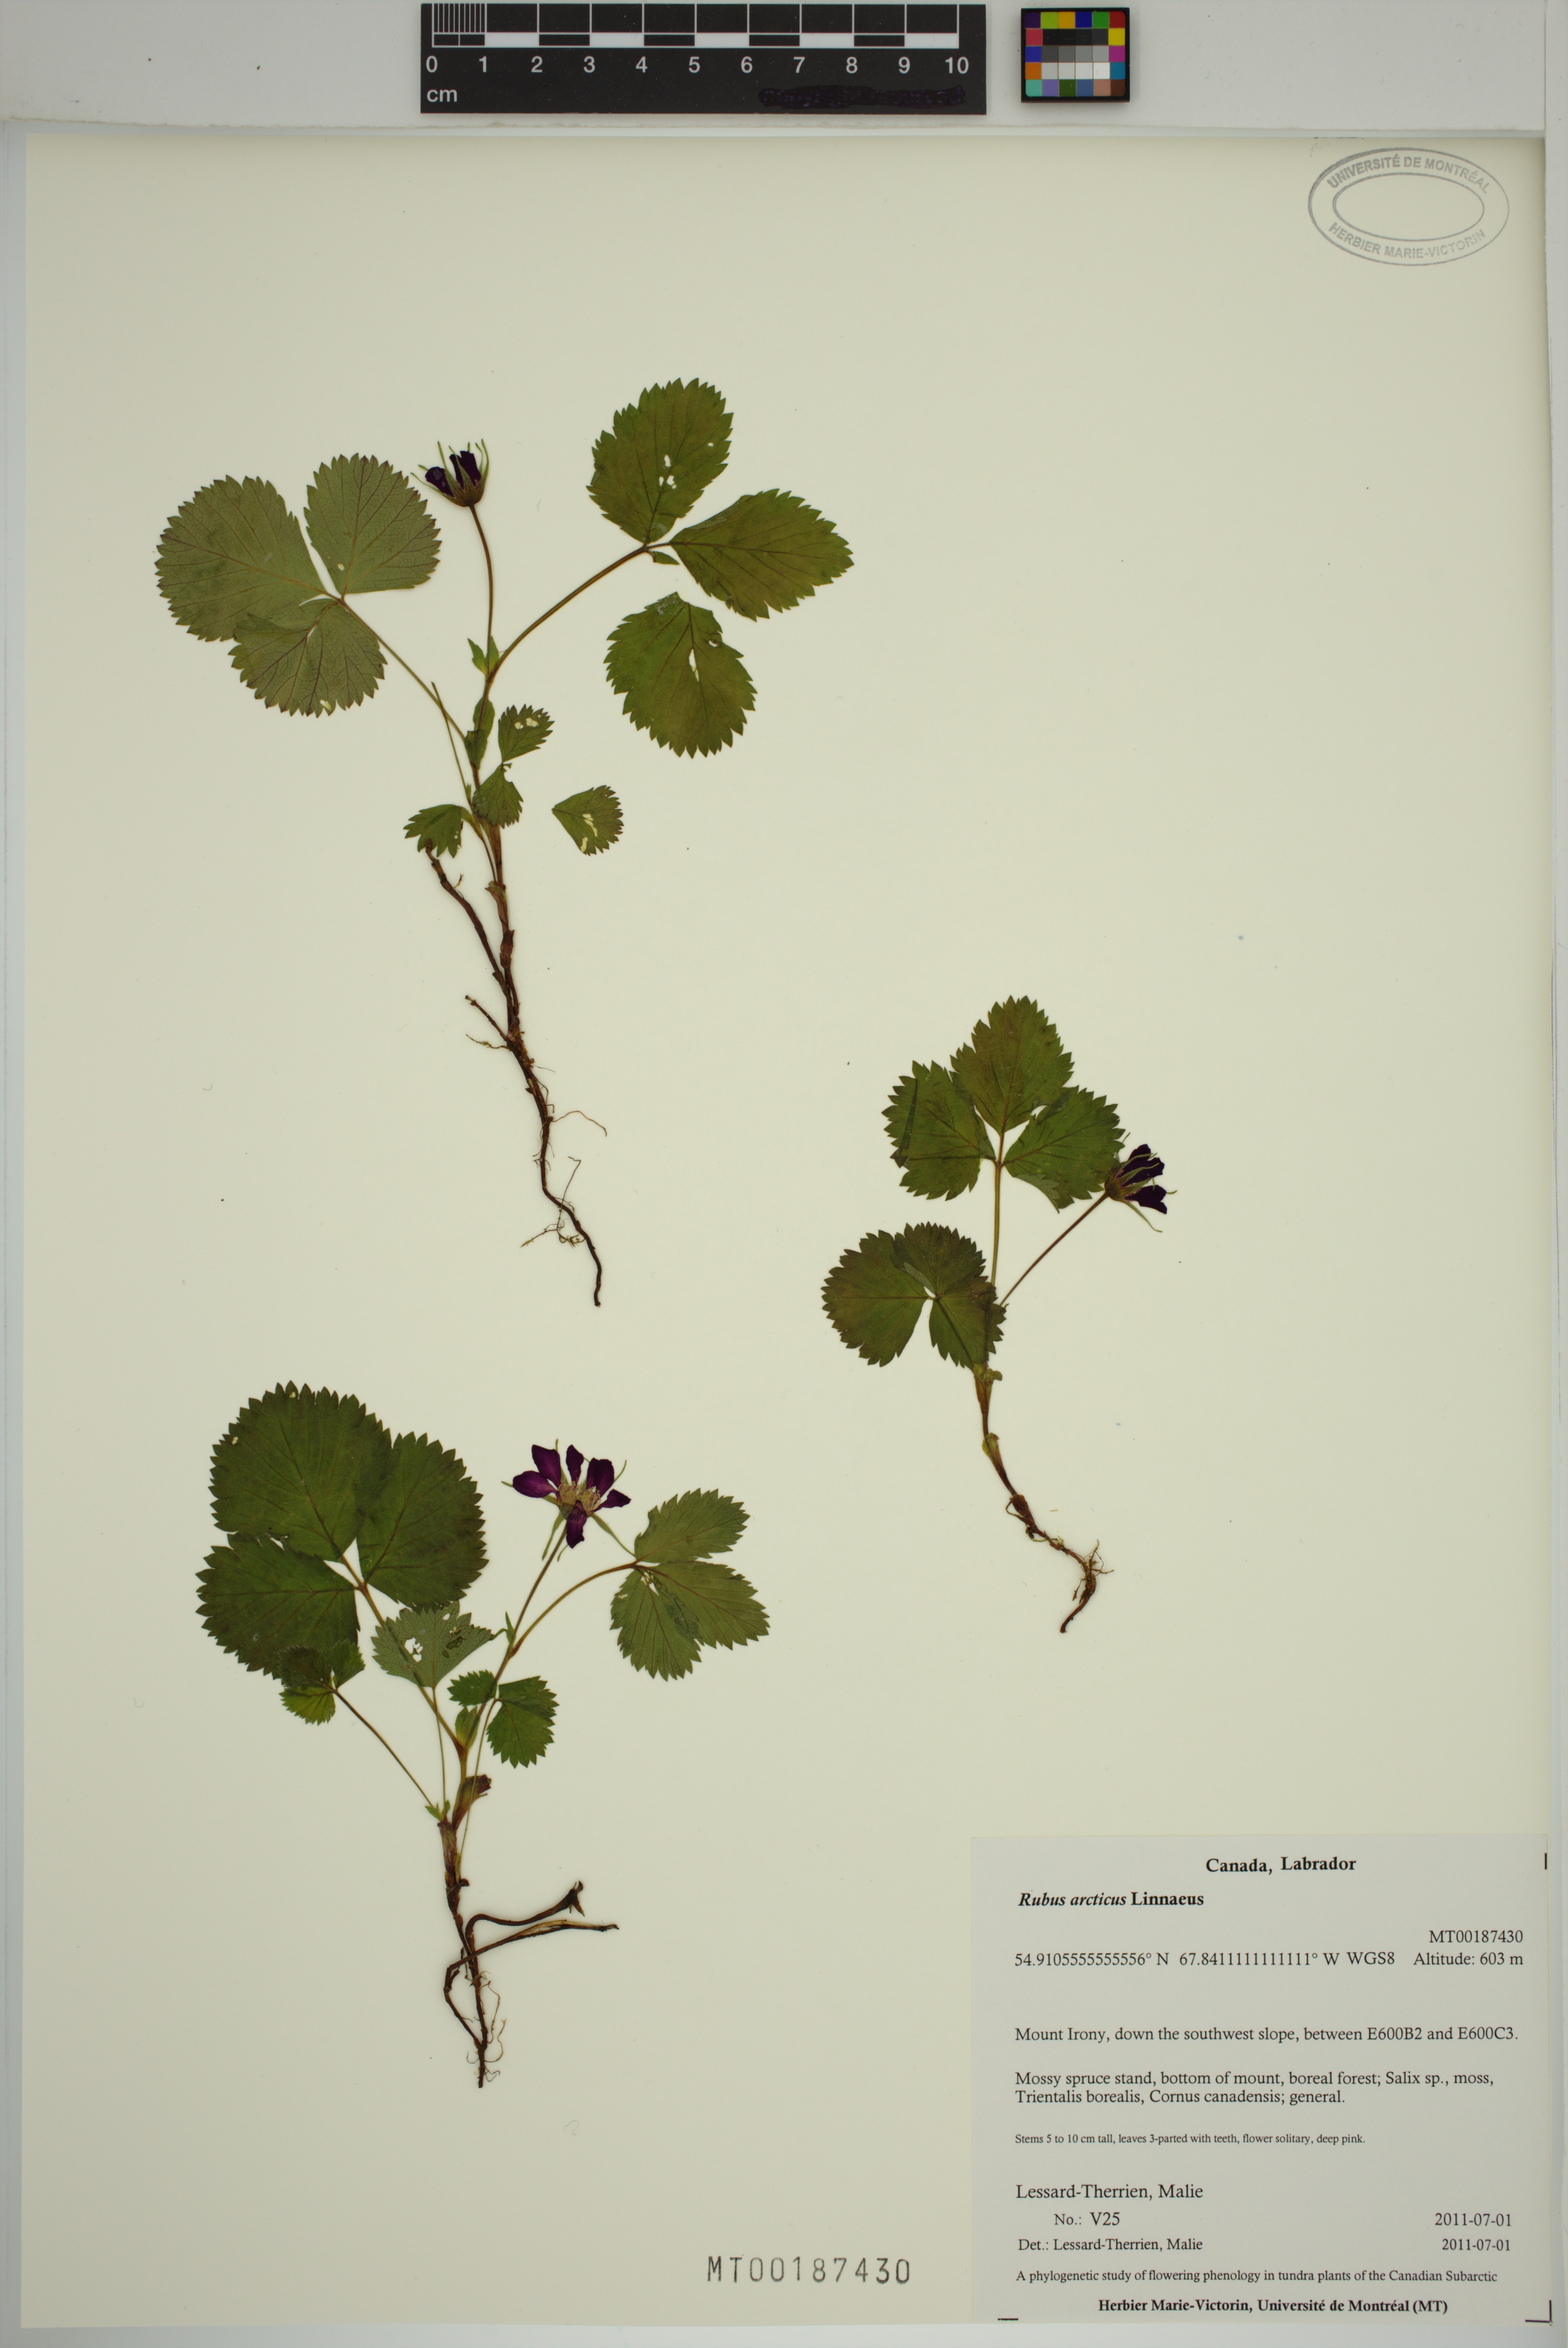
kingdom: Plantae
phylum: Tracheophyta
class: Magnoliopsida
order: Rosales
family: Rosaceae
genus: Rubus
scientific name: Rubus arcticus
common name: Arctic bramble
